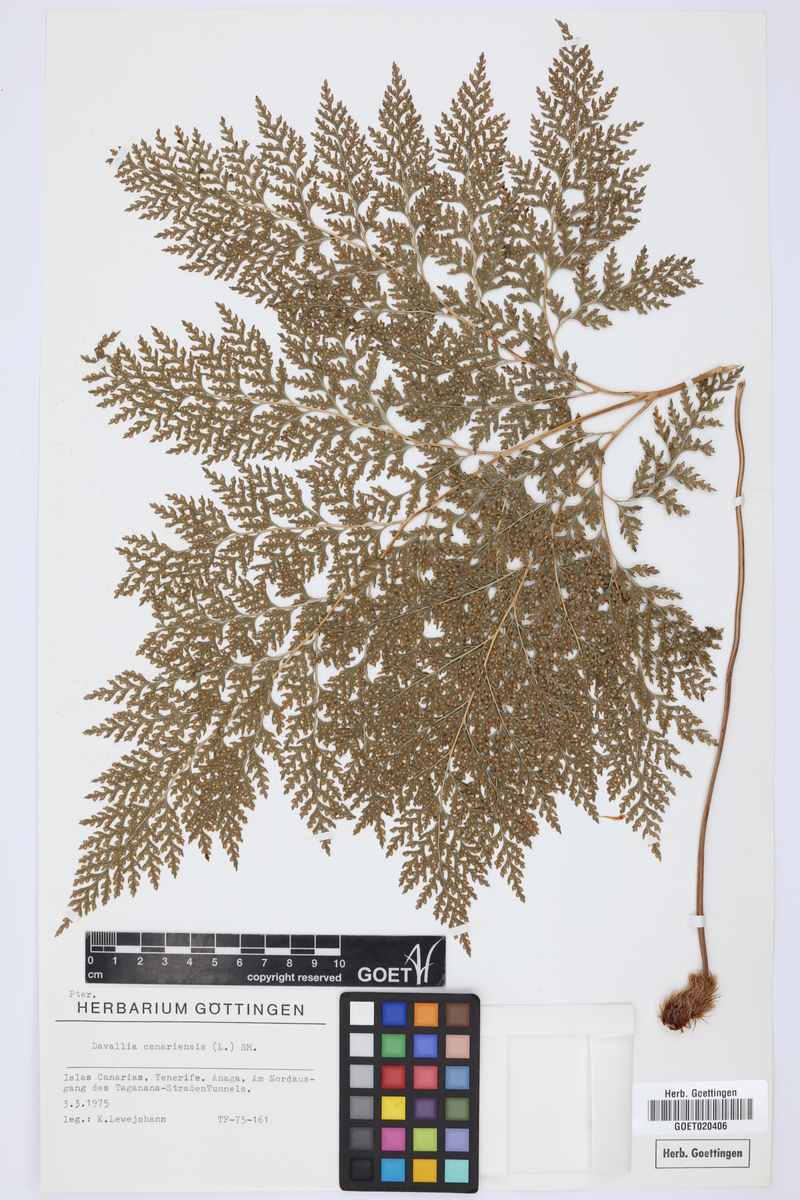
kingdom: Plantae
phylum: Tracheophyta
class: Polypodiopsida
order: Polypodiales
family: Davalliaceae
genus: Davallia
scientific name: Davallia canariensis
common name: Hare's-foot fern
